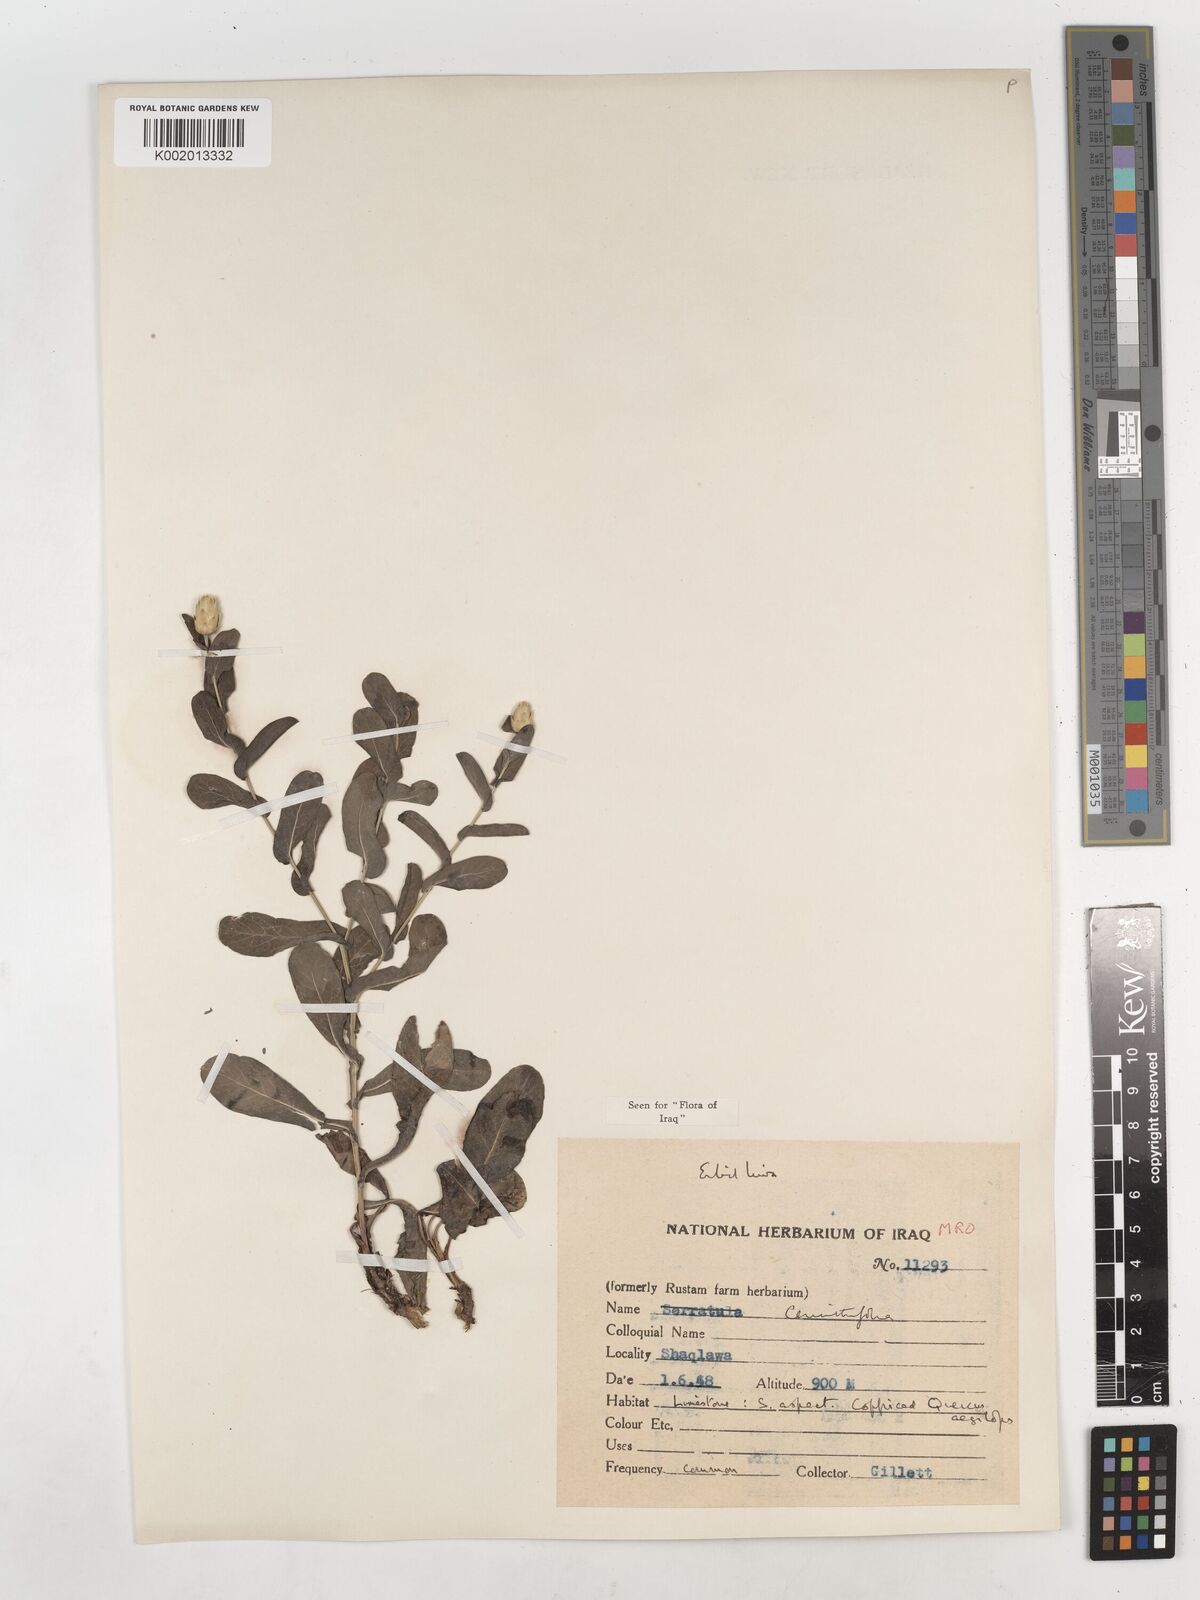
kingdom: Plantae
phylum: Tracheophyta
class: Magnoliopsida
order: Asterales
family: Asteraceae
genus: Klasea
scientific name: Klasea cerinthifolia
